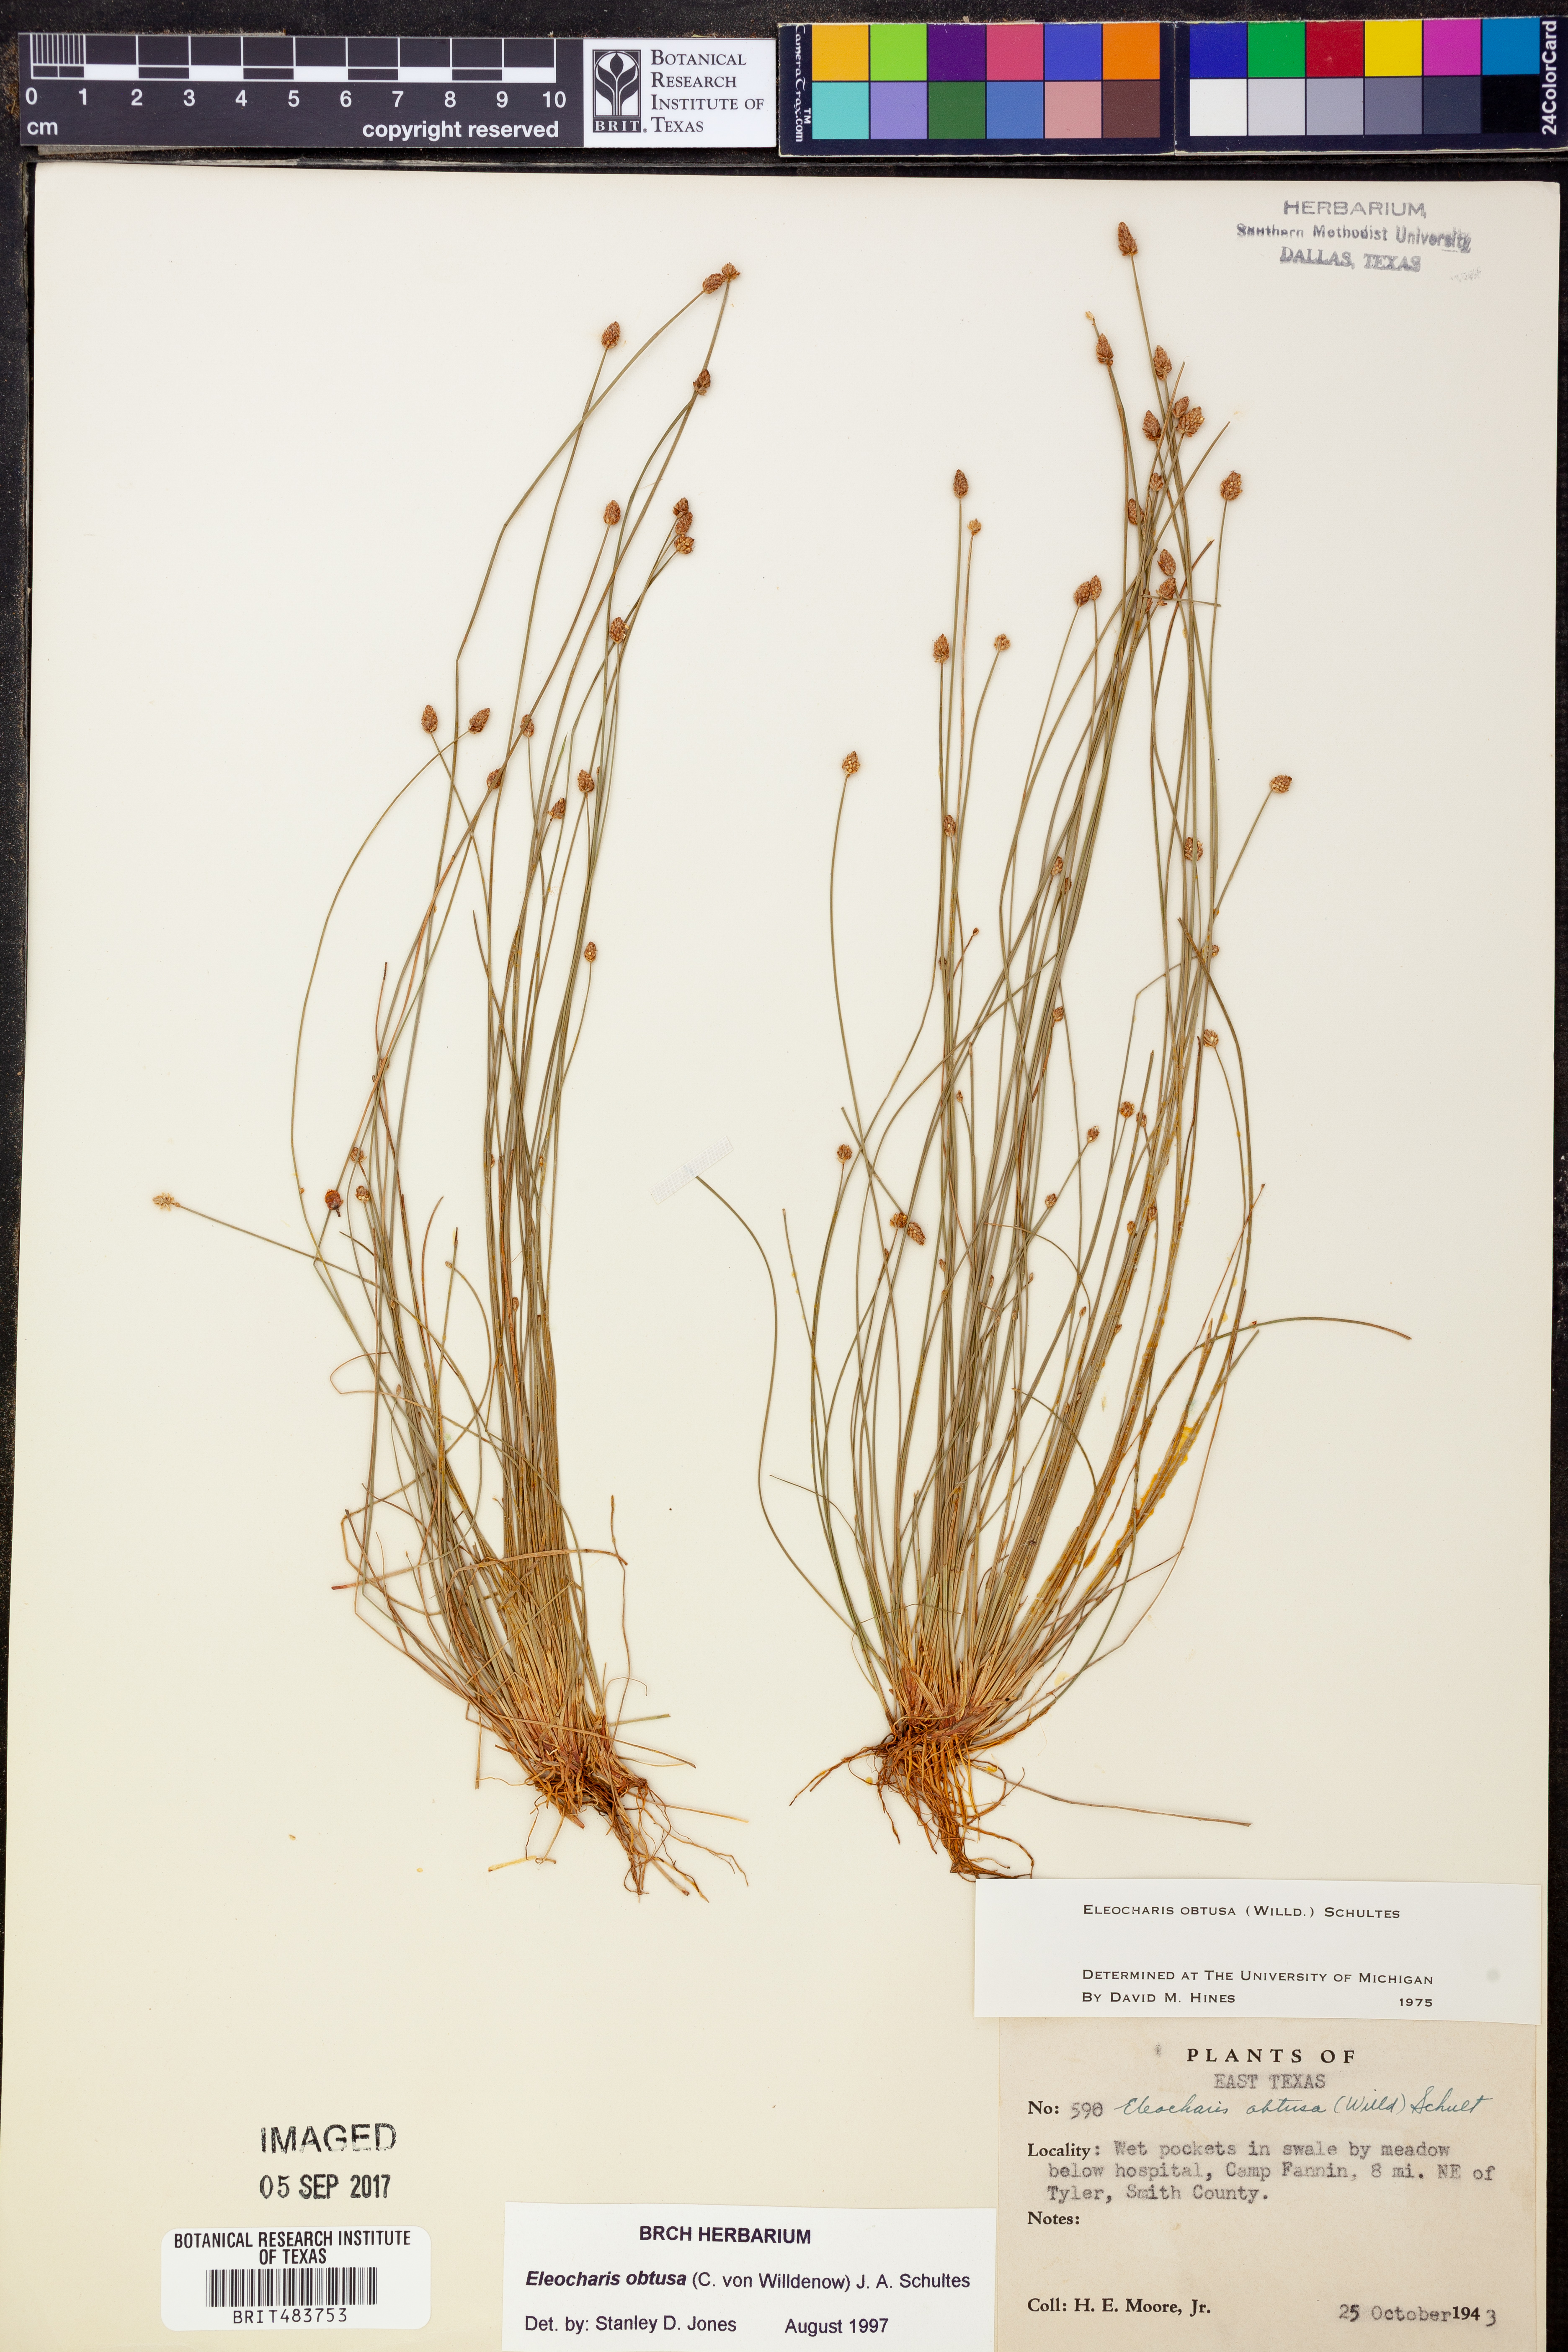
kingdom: Plantae
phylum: Tracheophyta
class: Liliopsida
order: Poales
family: Cyperaceae
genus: Eleocharis
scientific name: Eleocharis obtusa
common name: Blunt spikerush
